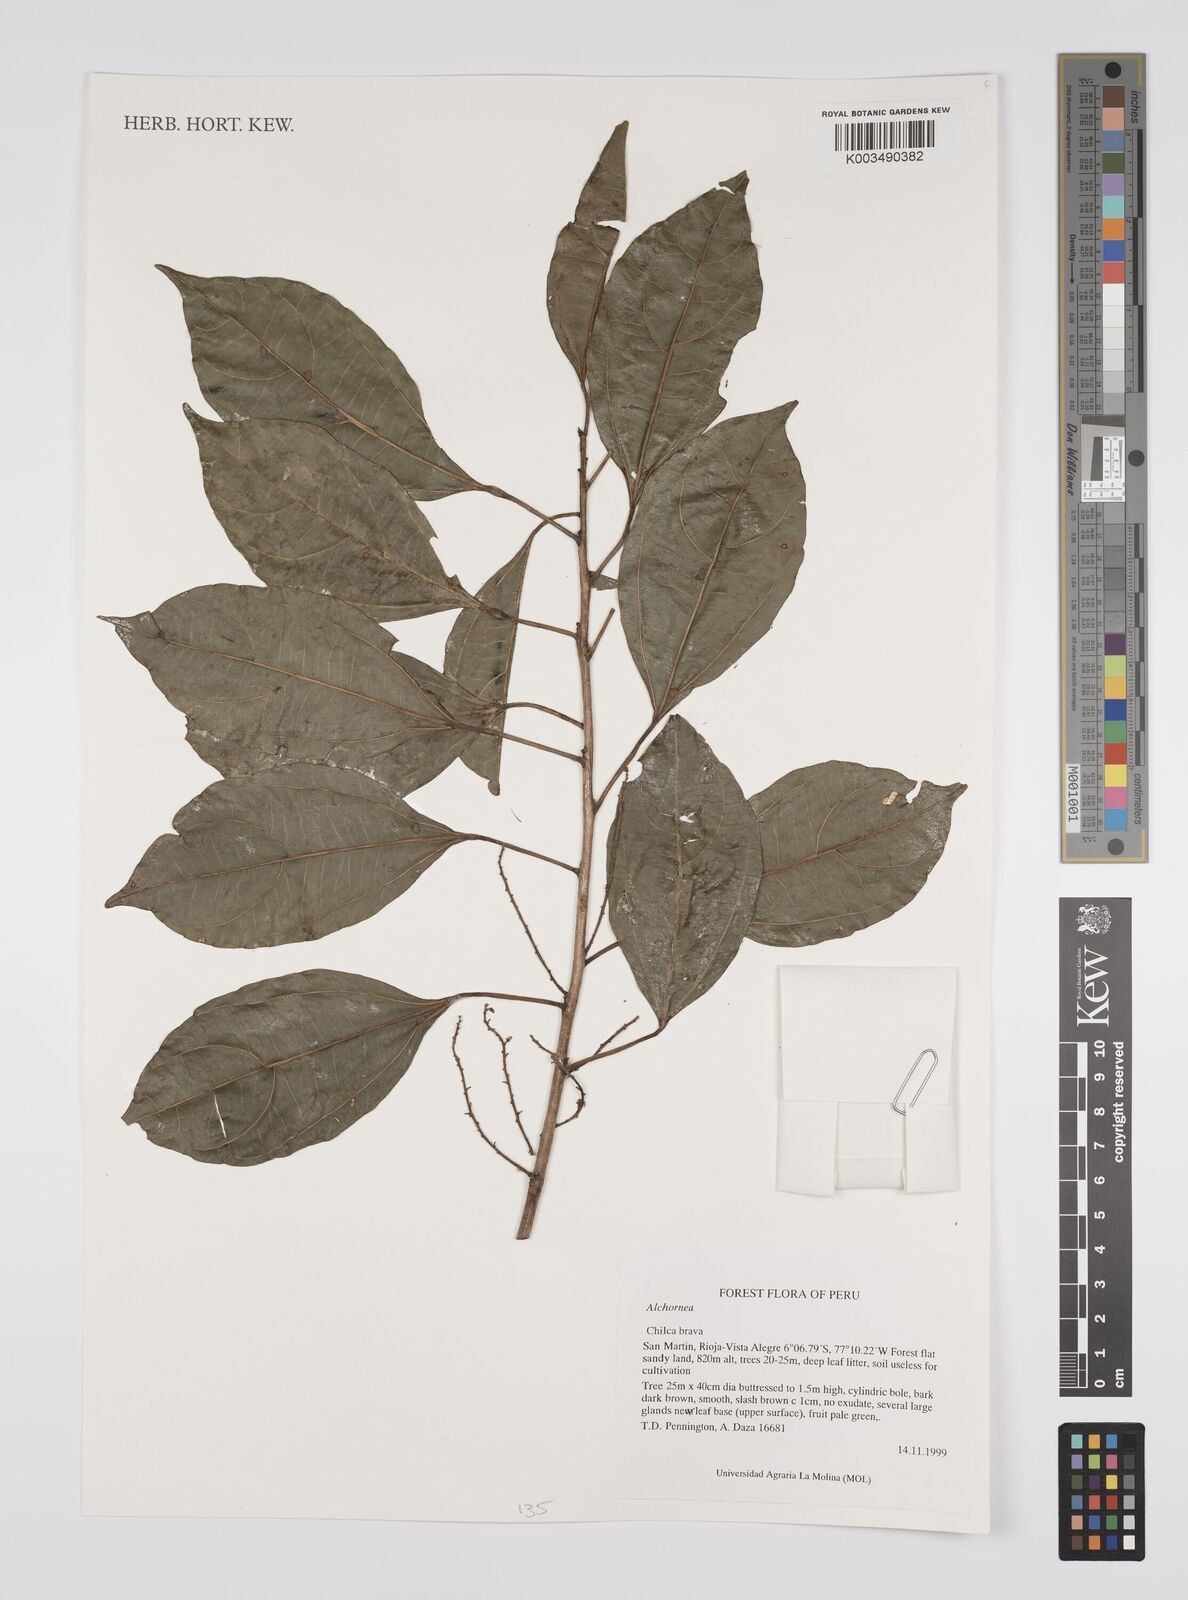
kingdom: Plantae
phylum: Tracheophyta
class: Magnoliopsida
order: Malpighiales
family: Euphorbiaceae
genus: Alchornea
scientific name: Alchornea
